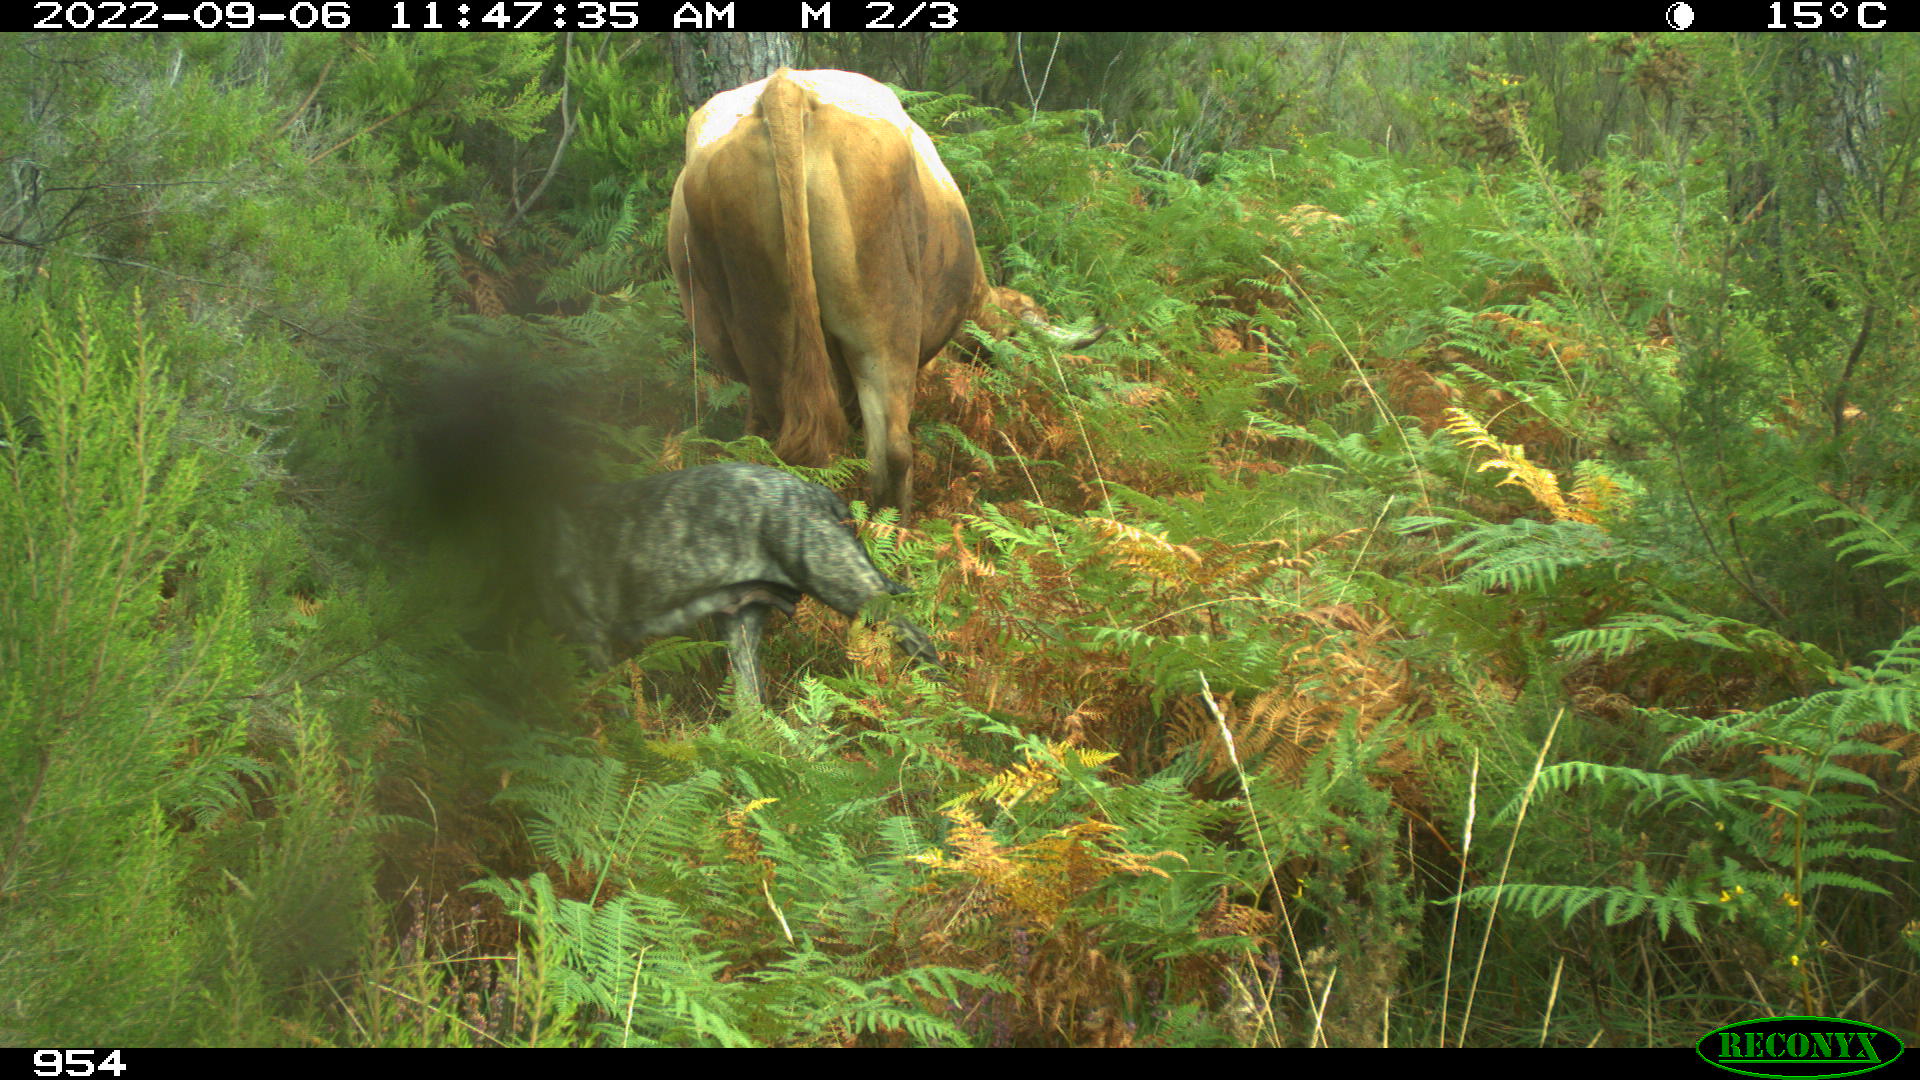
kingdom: Animalia
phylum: Chordata
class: Mammalia
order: Carnivora
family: Canidae
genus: Canis
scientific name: Canis lupus
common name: Gray wolf
